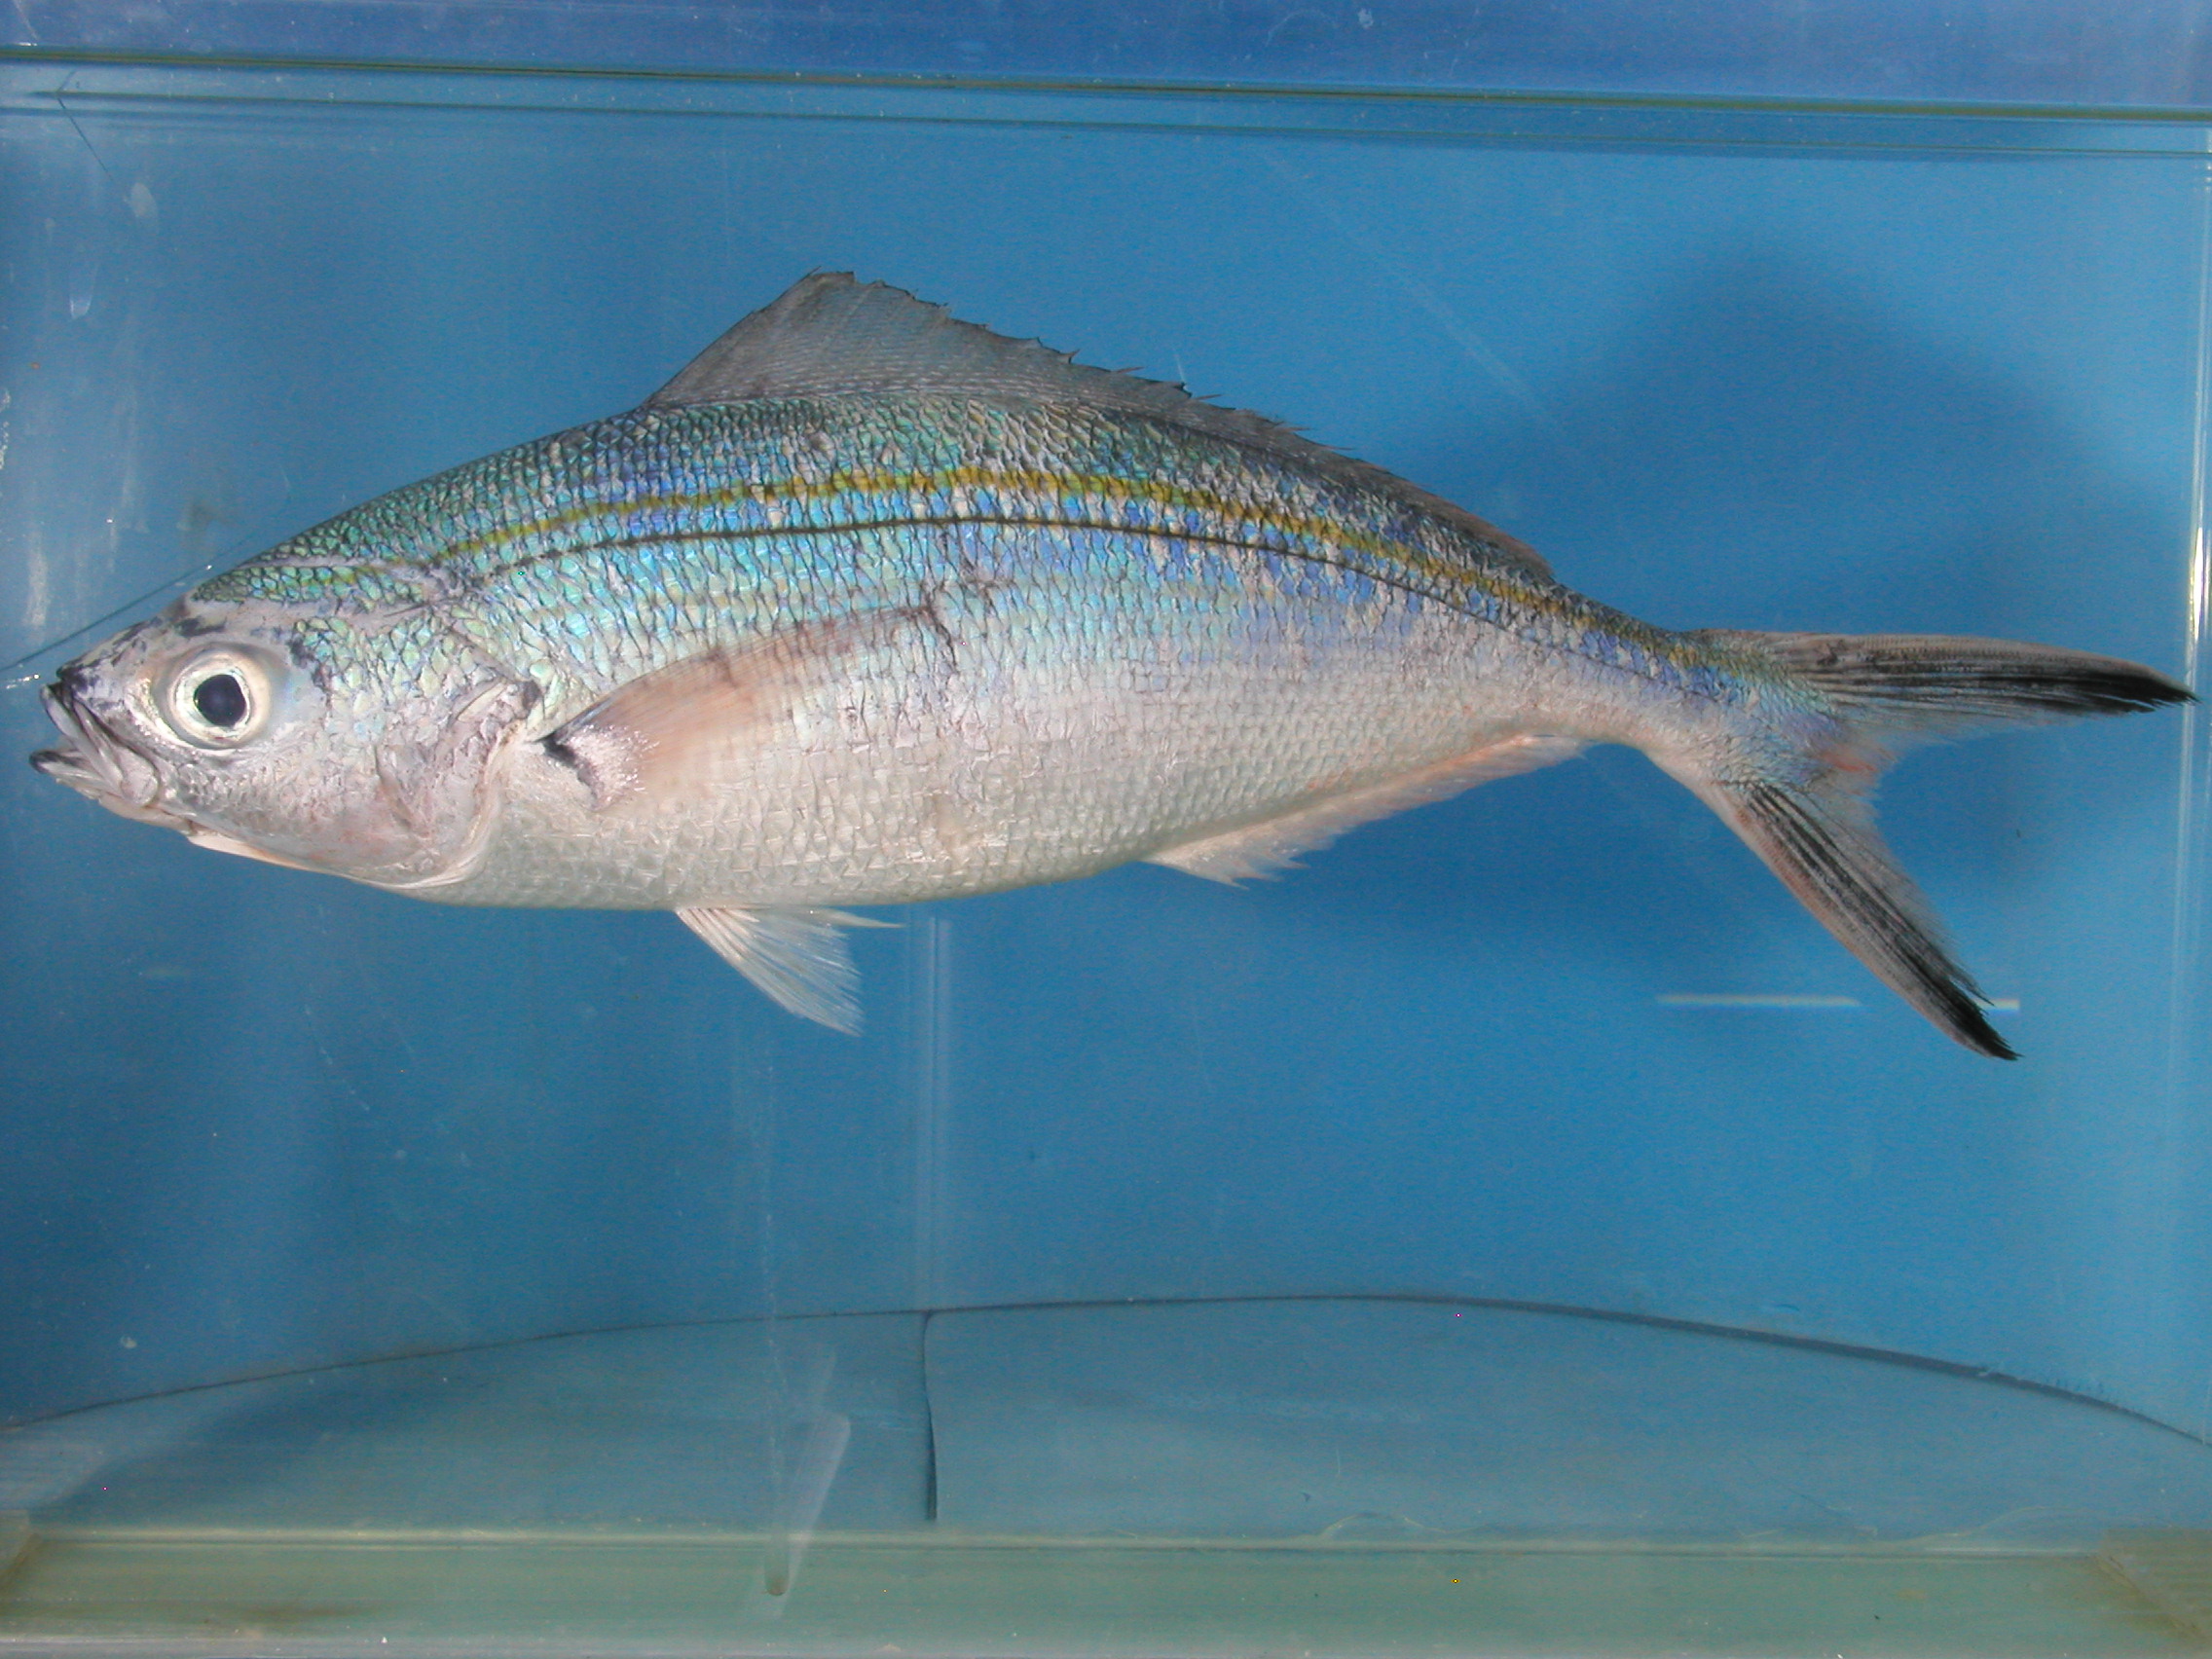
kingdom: Animalia
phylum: Chordata
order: Perciformes
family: Caesionidae
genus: Caesio
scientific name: Caesio varilineata
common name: Variable-lined fusilier
